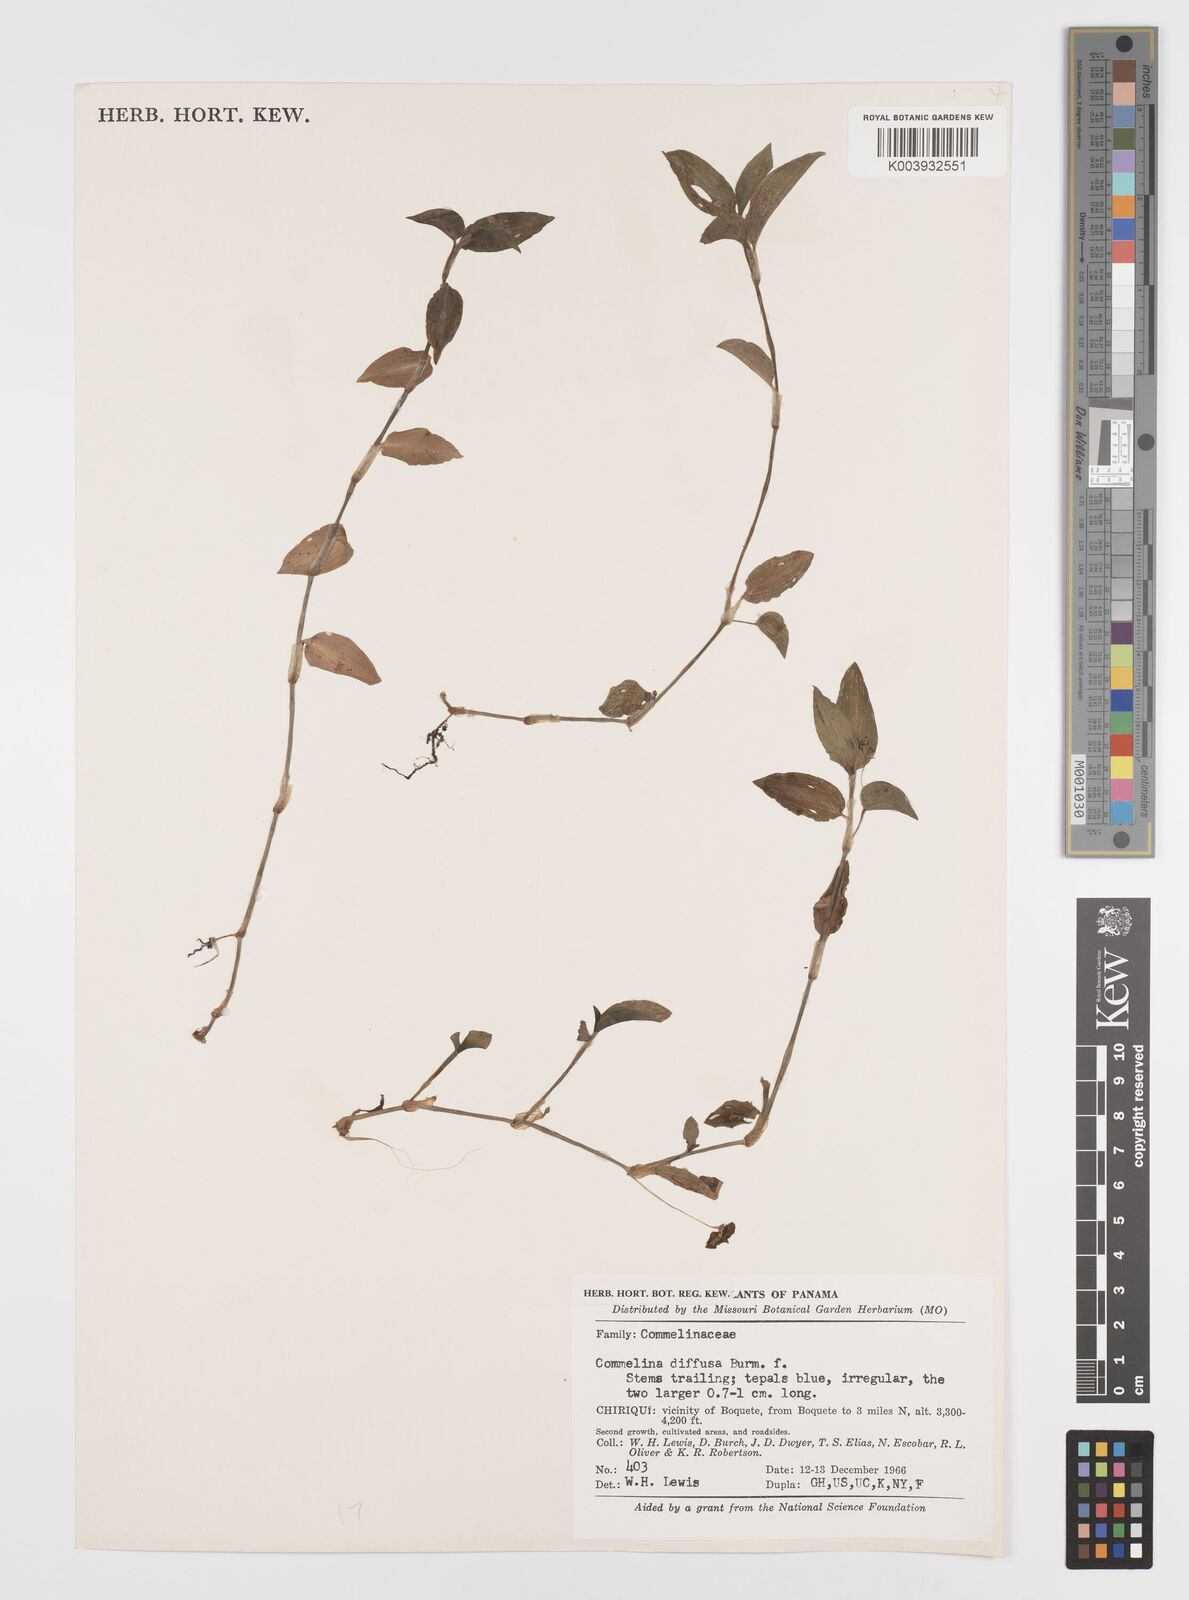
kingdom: Plantae
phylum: Tracheophyta
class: Liliopsida
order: Commelinales
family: Commelinaceae
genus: Commelina
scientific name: Commelina diffusa
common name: Climbing dayflower
